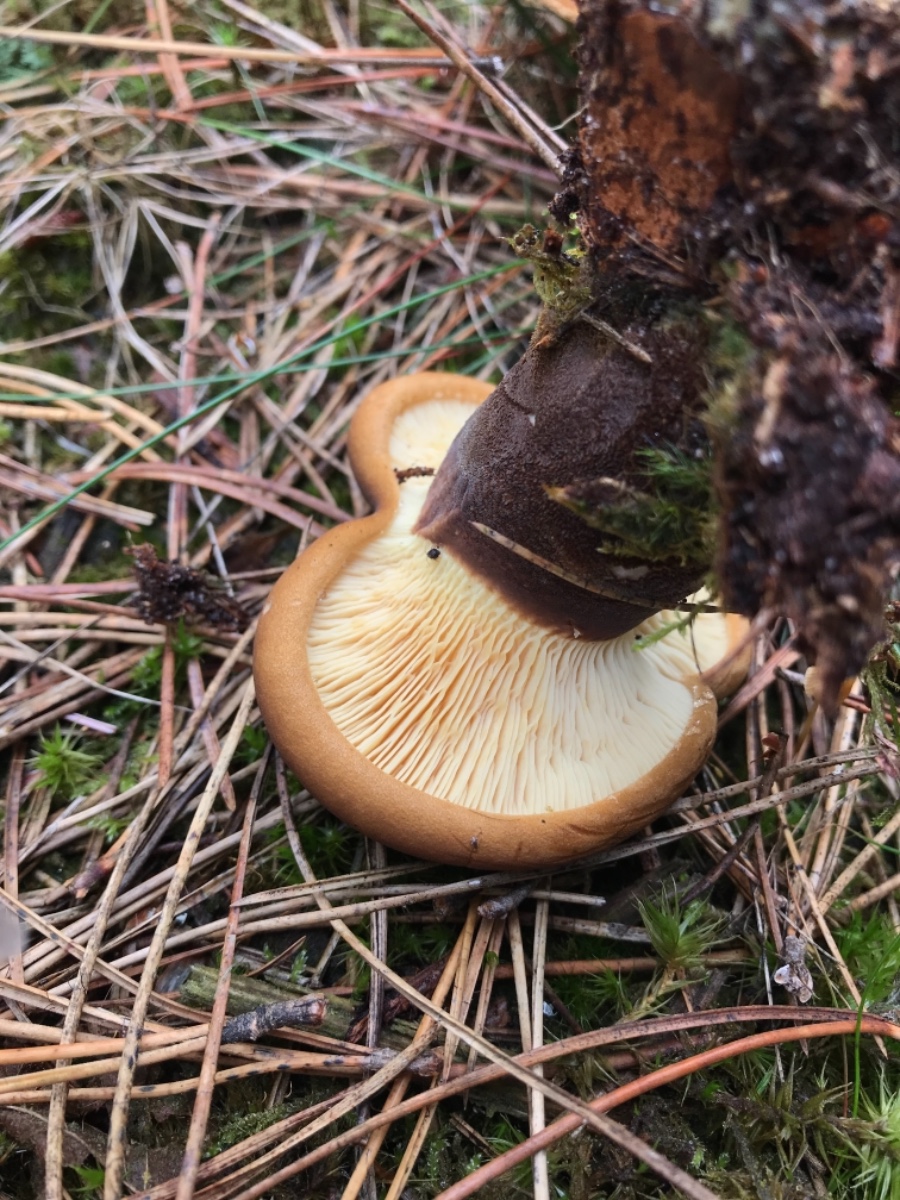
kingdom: Fungi
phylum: Basidiomycota
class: Agaricomycetes
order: Boletales
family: Tapinellaceae
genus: Tapinella
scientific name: Tapinella atrotomentosa
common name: sortfiltet viftesvamp
